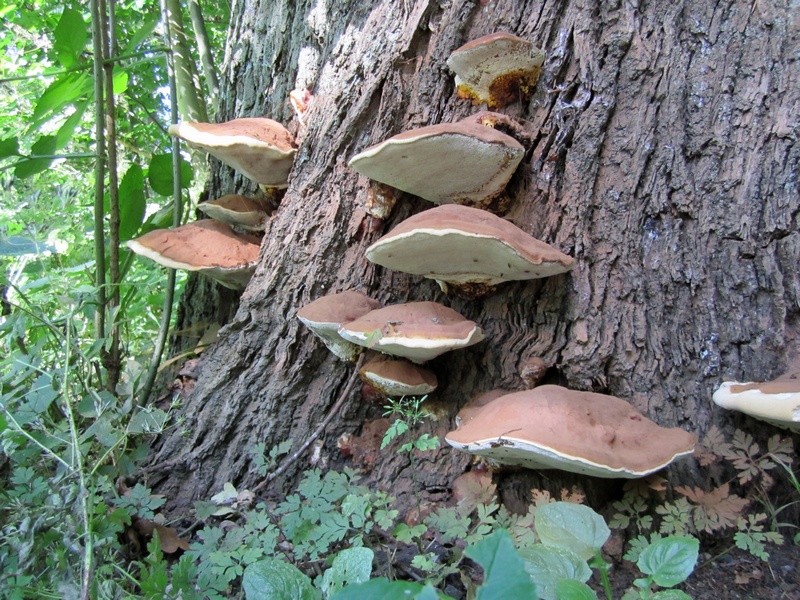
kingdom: Fungi
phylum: Basidiomycota
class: Agaricomycetes
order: Polyporales
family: Polyporaceae
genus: Ganoderma
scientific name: Ganoderma applanatum
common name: flad lakporesvamp
